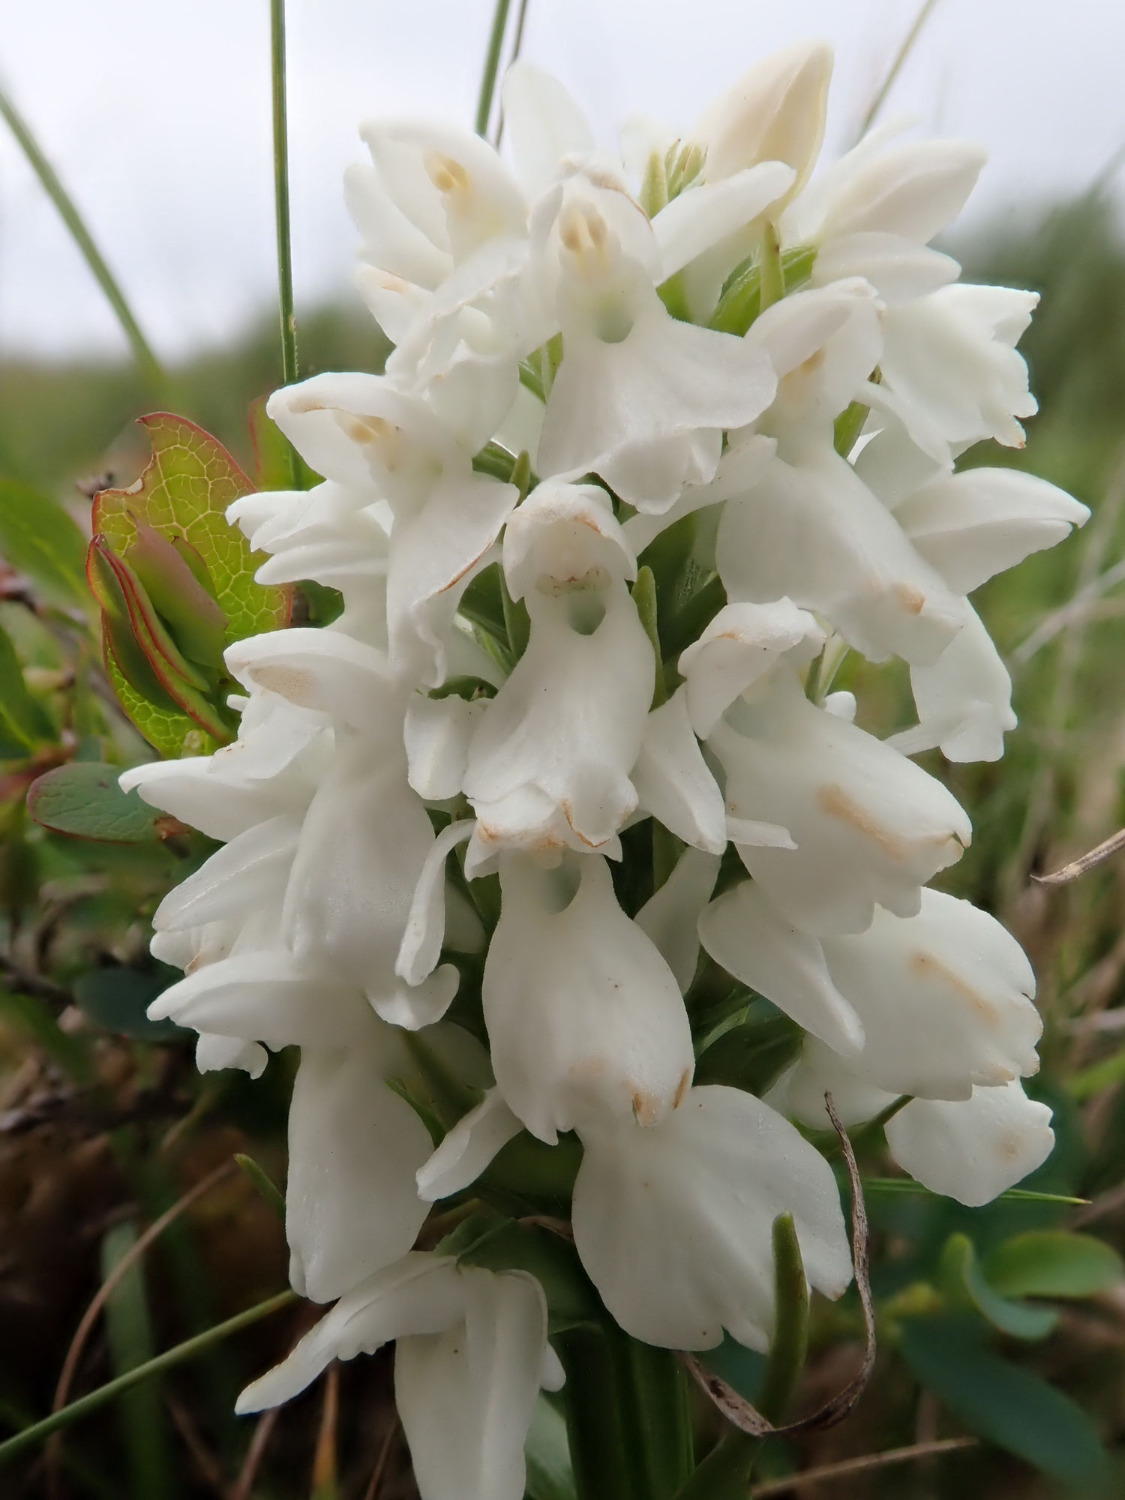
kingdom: Plantae
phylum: Tracheophyta
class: Liliopsida
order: Asparagales
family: Orchidaceae
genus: Dactylorhiza
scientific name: Dactylorhiza majalis
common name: Thy-gøgeurt
